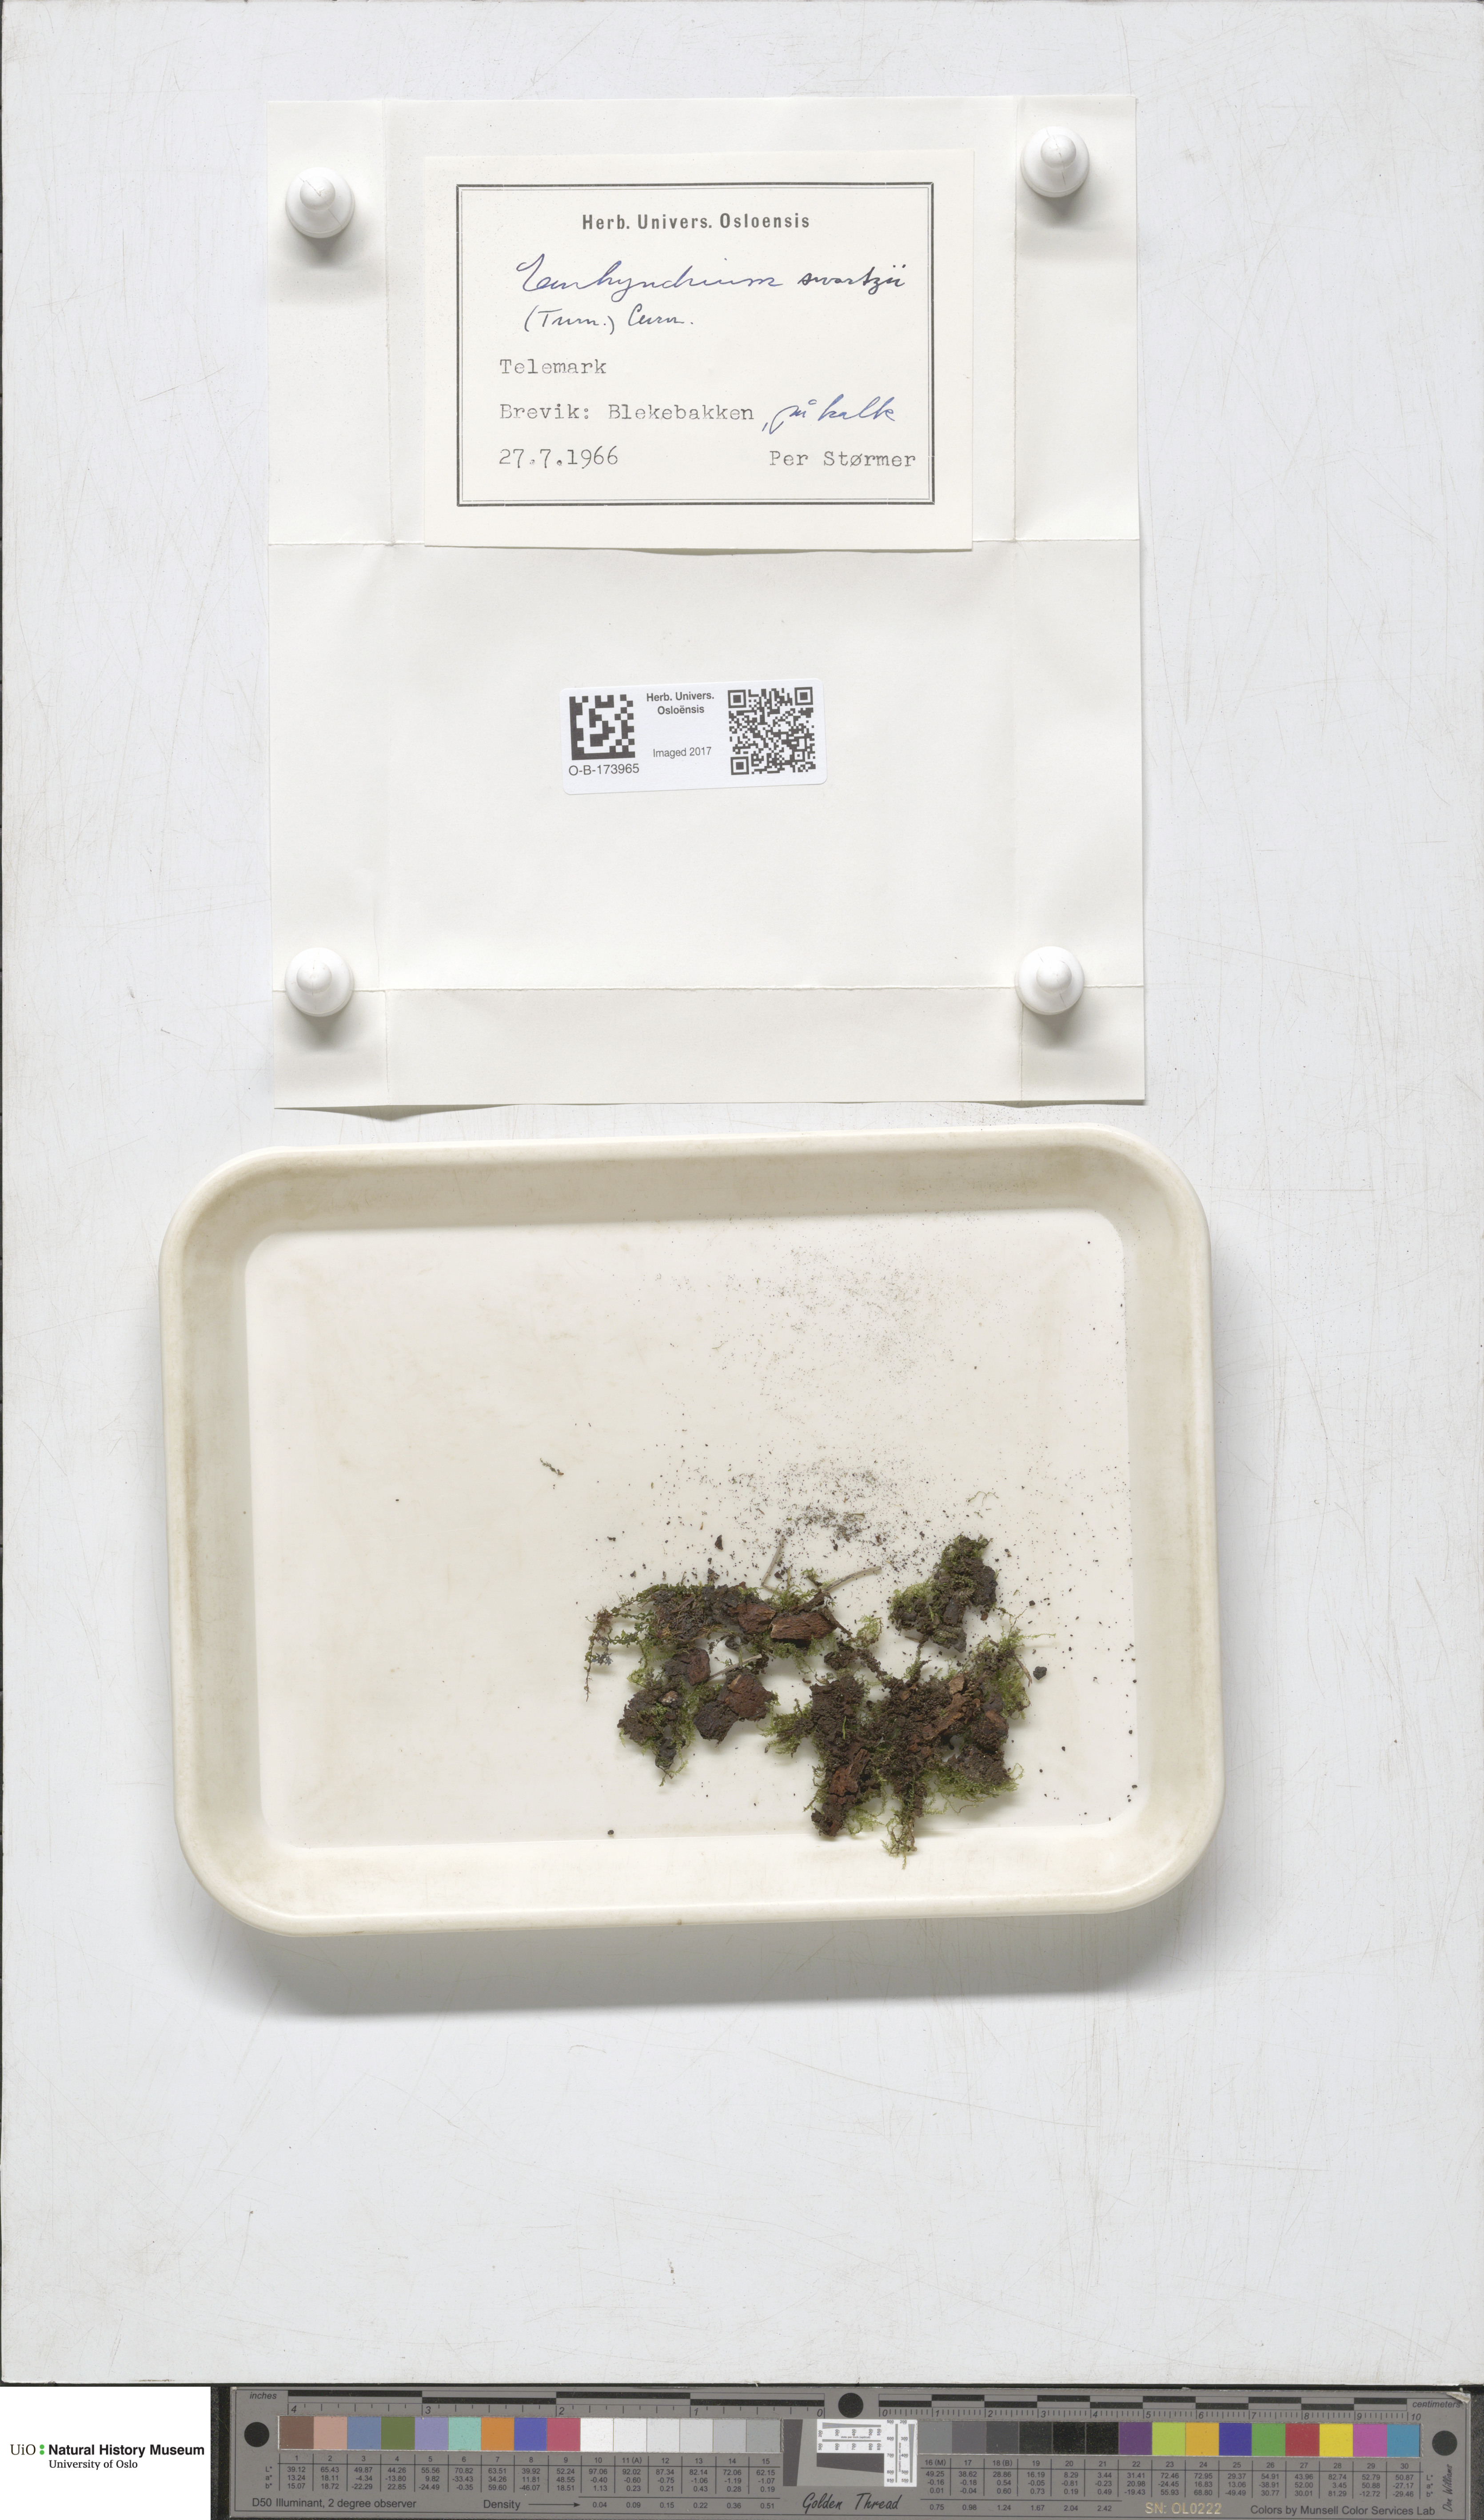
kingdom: Plantae
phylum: Bryophyta
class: Bryopsida
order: Hypnales
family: Brachytheciaceae
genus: Oxyrrhynchium
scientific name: Oxyrrhynchium hians
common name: Spreading beaked moss
